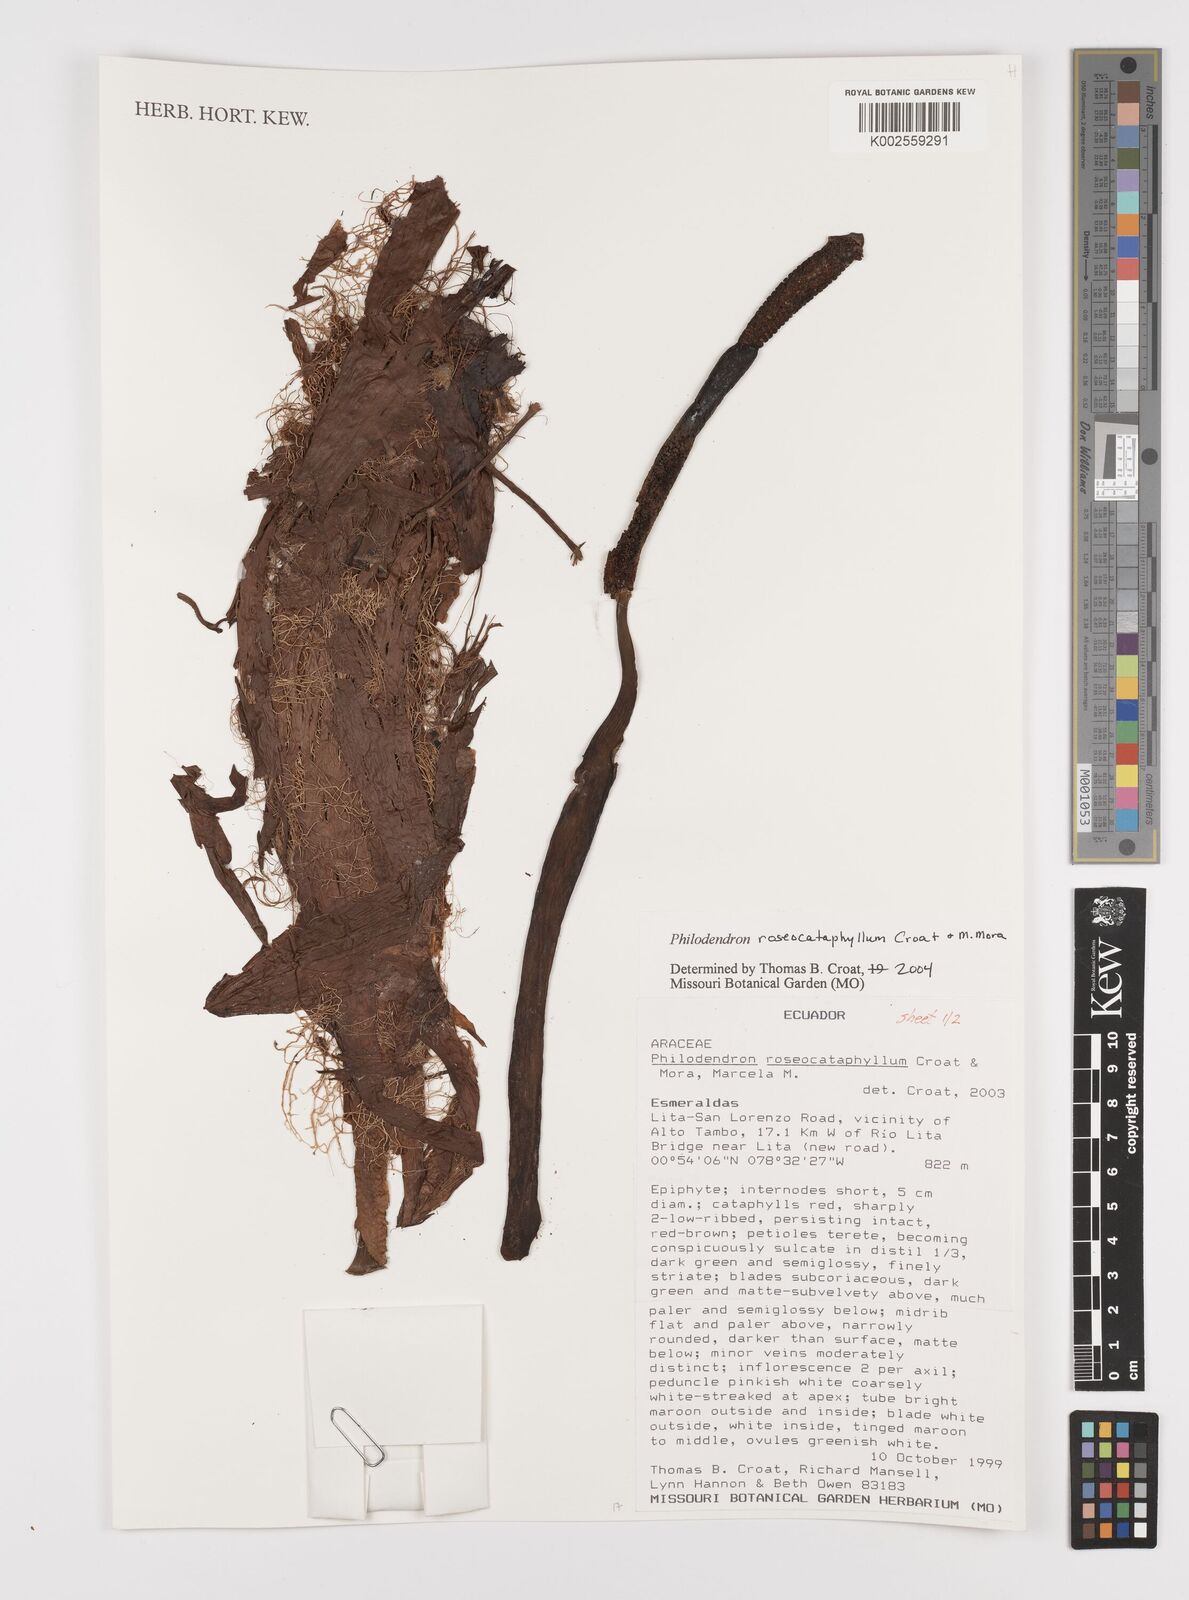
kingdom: Plantae
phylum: Tracheophyta
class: Liliopsida
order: Alismatales
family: Araceae
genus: Philodendron
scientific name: Philodendron roseocataphyllum
